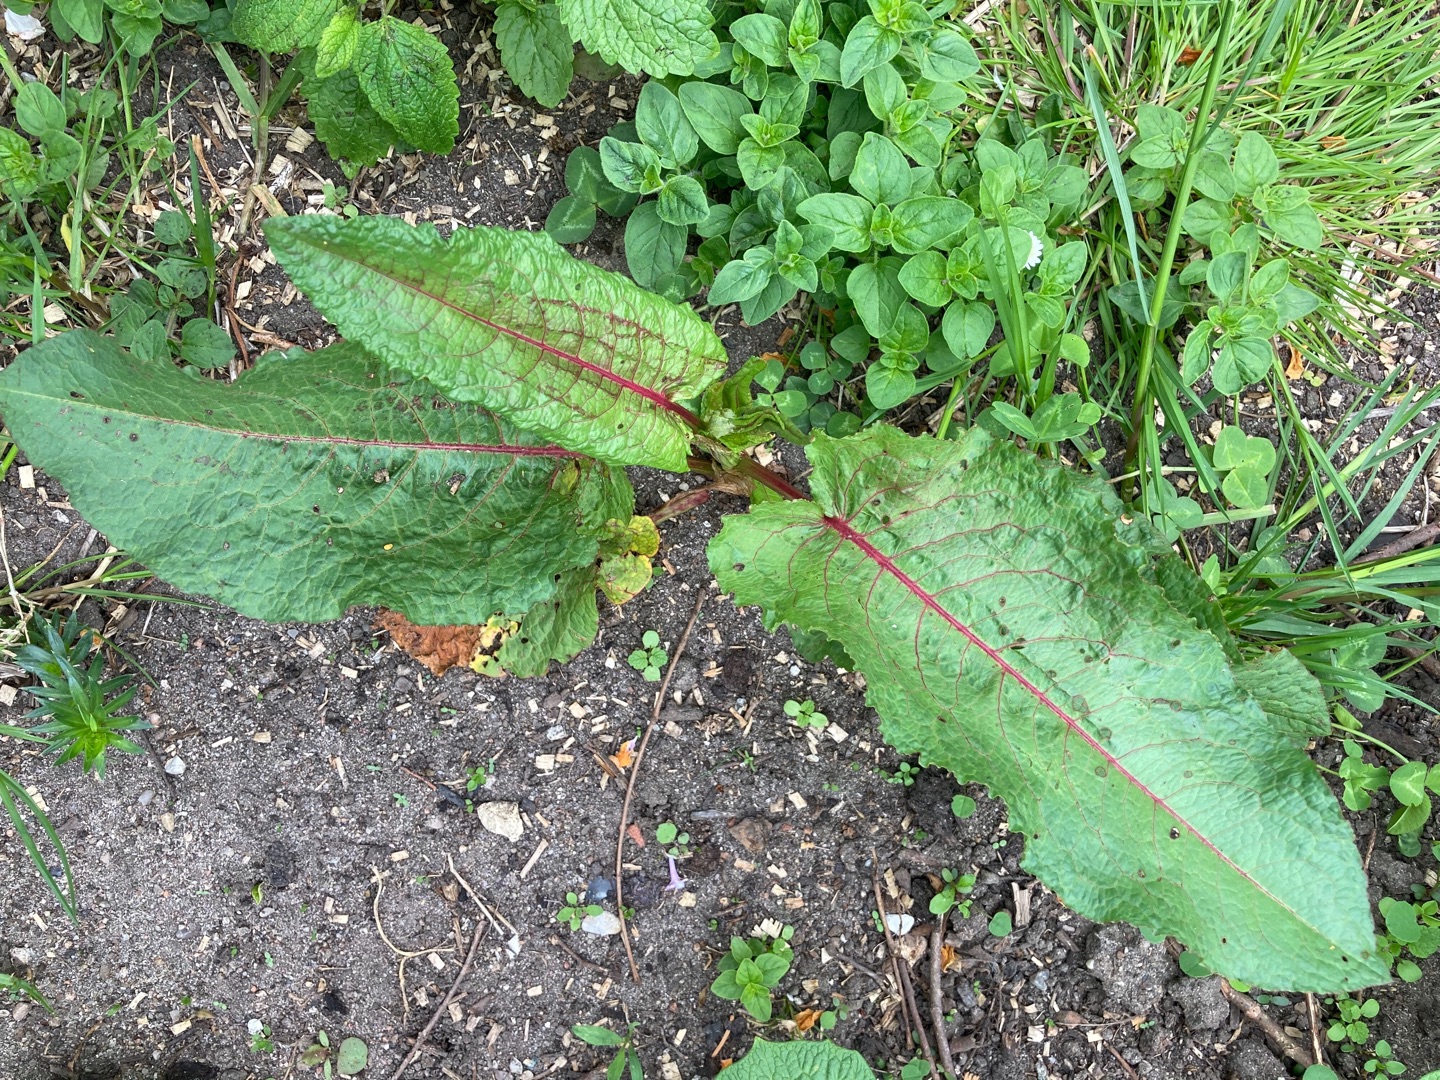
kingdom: Plantae
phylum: Tracheophyta
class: Magnoliopsida
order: Caryophyllales
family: Polygonaceae
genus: Rumex
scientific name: Rumex obtusifolius
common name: Butbladet skræppe
